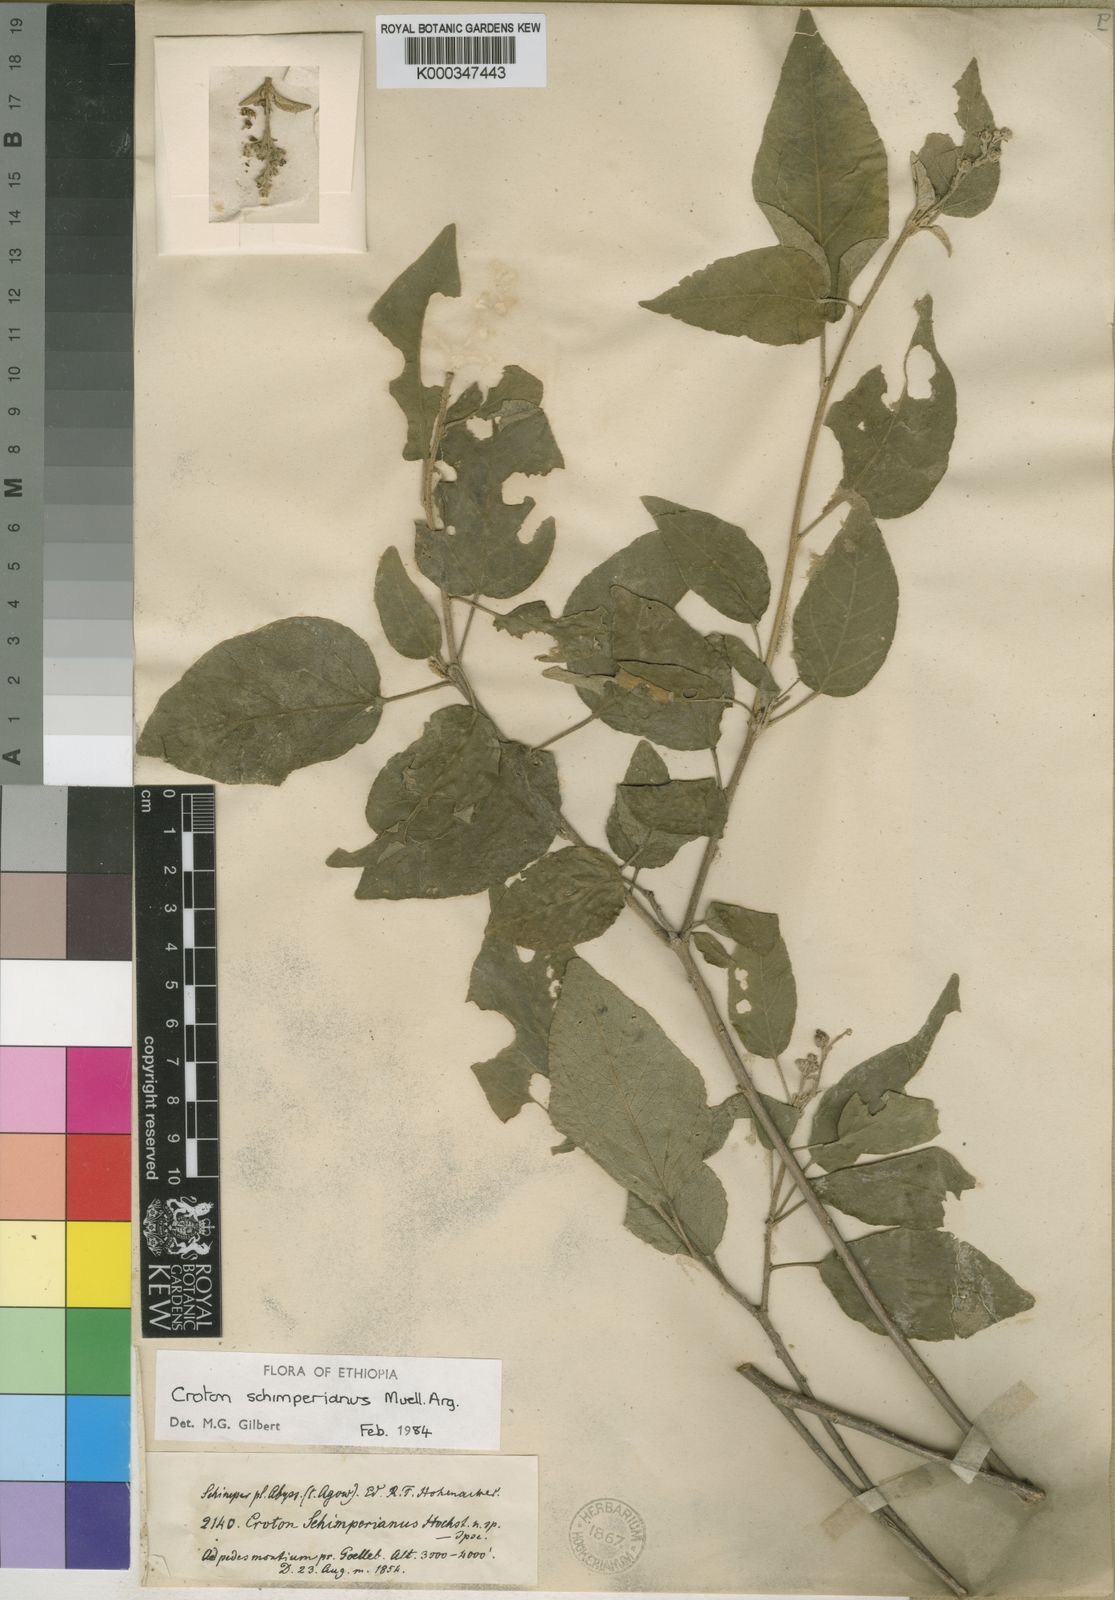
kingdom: Plantae
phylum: Tracheophyta
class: Magnoliopsida
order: Malpighiales
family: Euphorbiaceae
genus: Croton
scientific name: Croton
